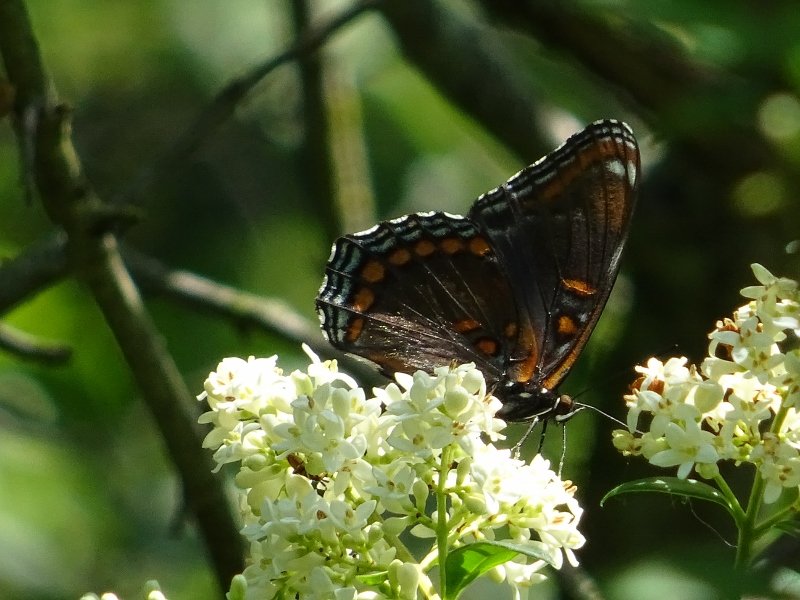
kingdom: Animalia
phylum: Arthropoda
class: Insecta
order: Lepidoptera
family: Nymphalidae
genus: Limenitis
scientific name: Limenitis astyanax
